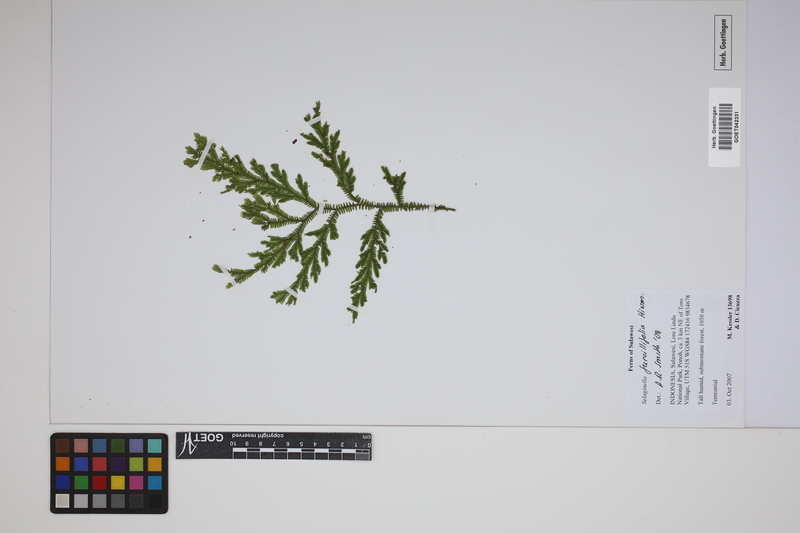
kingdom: Plantae
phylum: Tracheophyta
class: Lycopodiopsida
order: Selaginellales
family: Selaginellaceae
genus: Selaginella
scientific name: Selaginella furcillifolia
